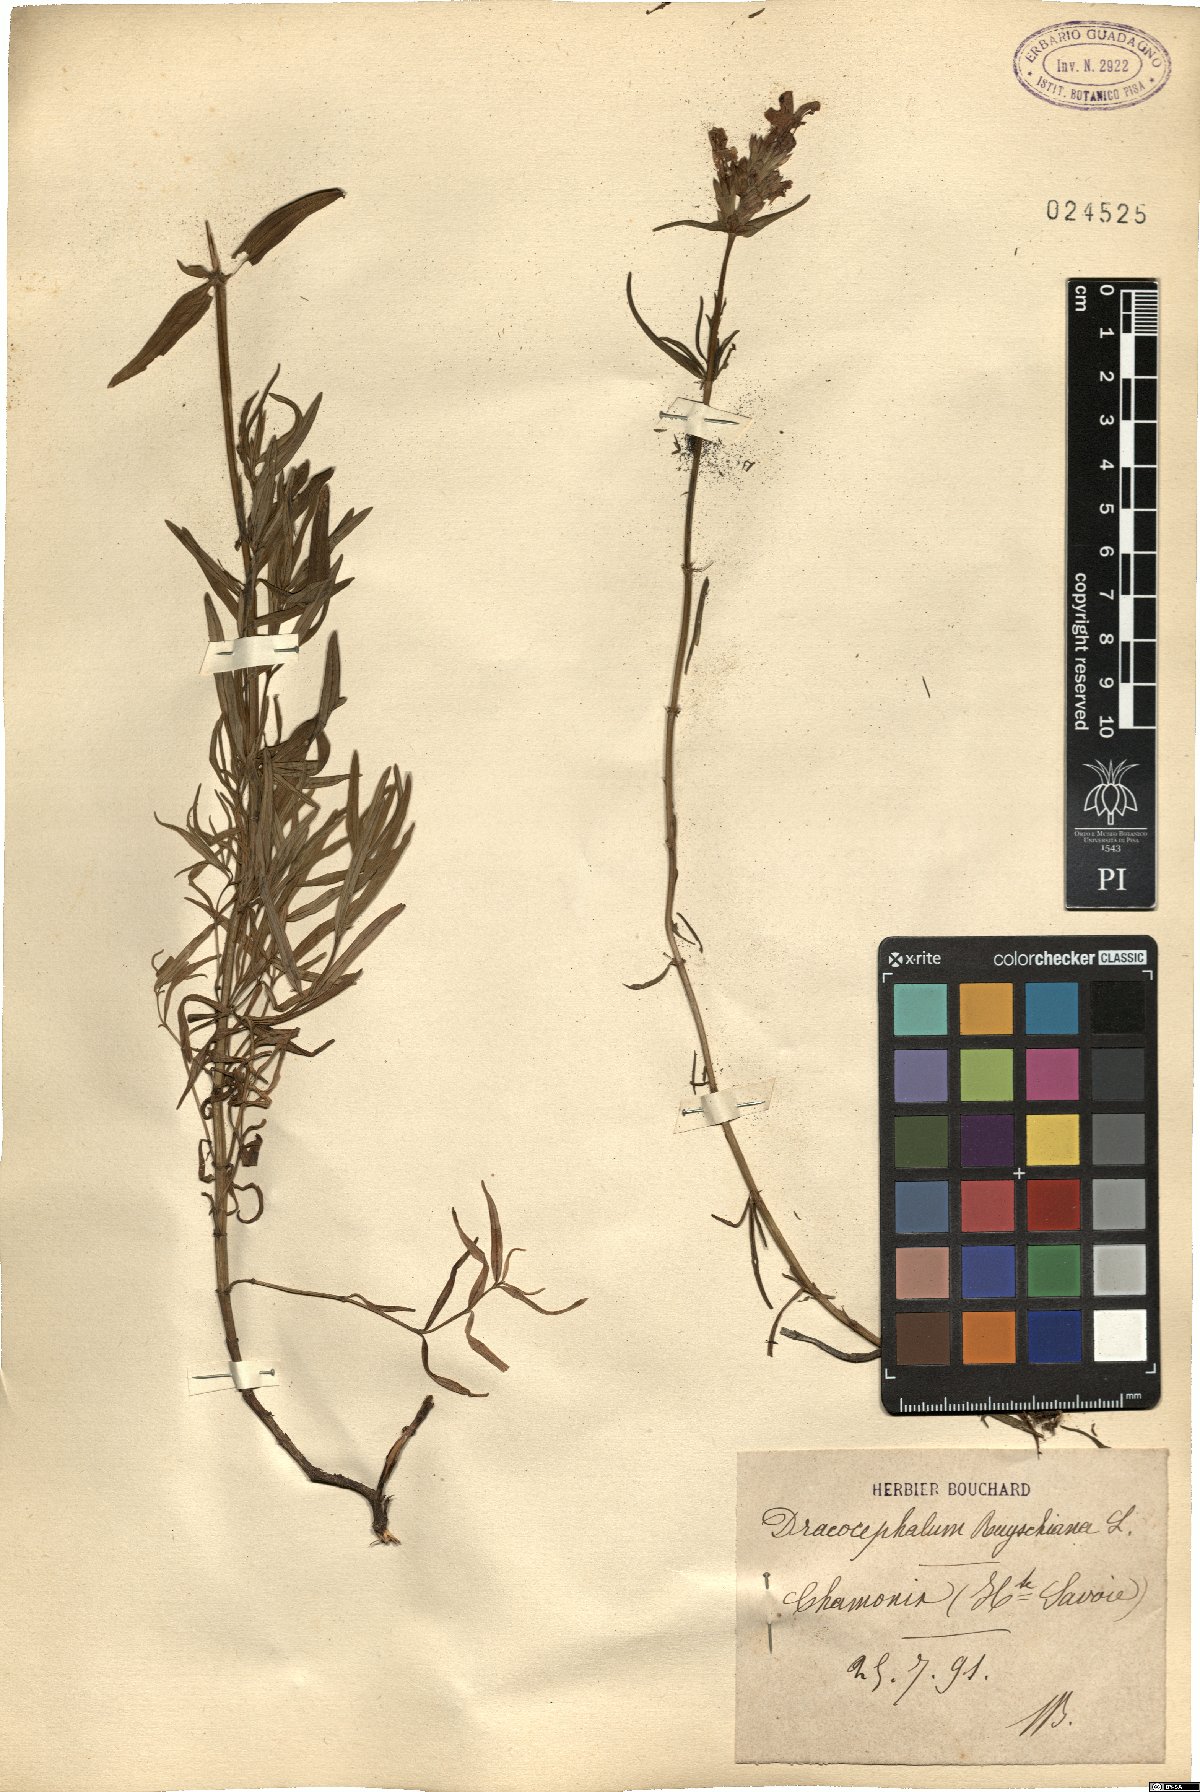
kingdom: Plantae
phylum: Tracheophyta
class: Magnoliopsida
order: Lamiales
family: Lamiaceae
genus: Dracocephalum
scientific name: Dracocephalum ruyschiana
